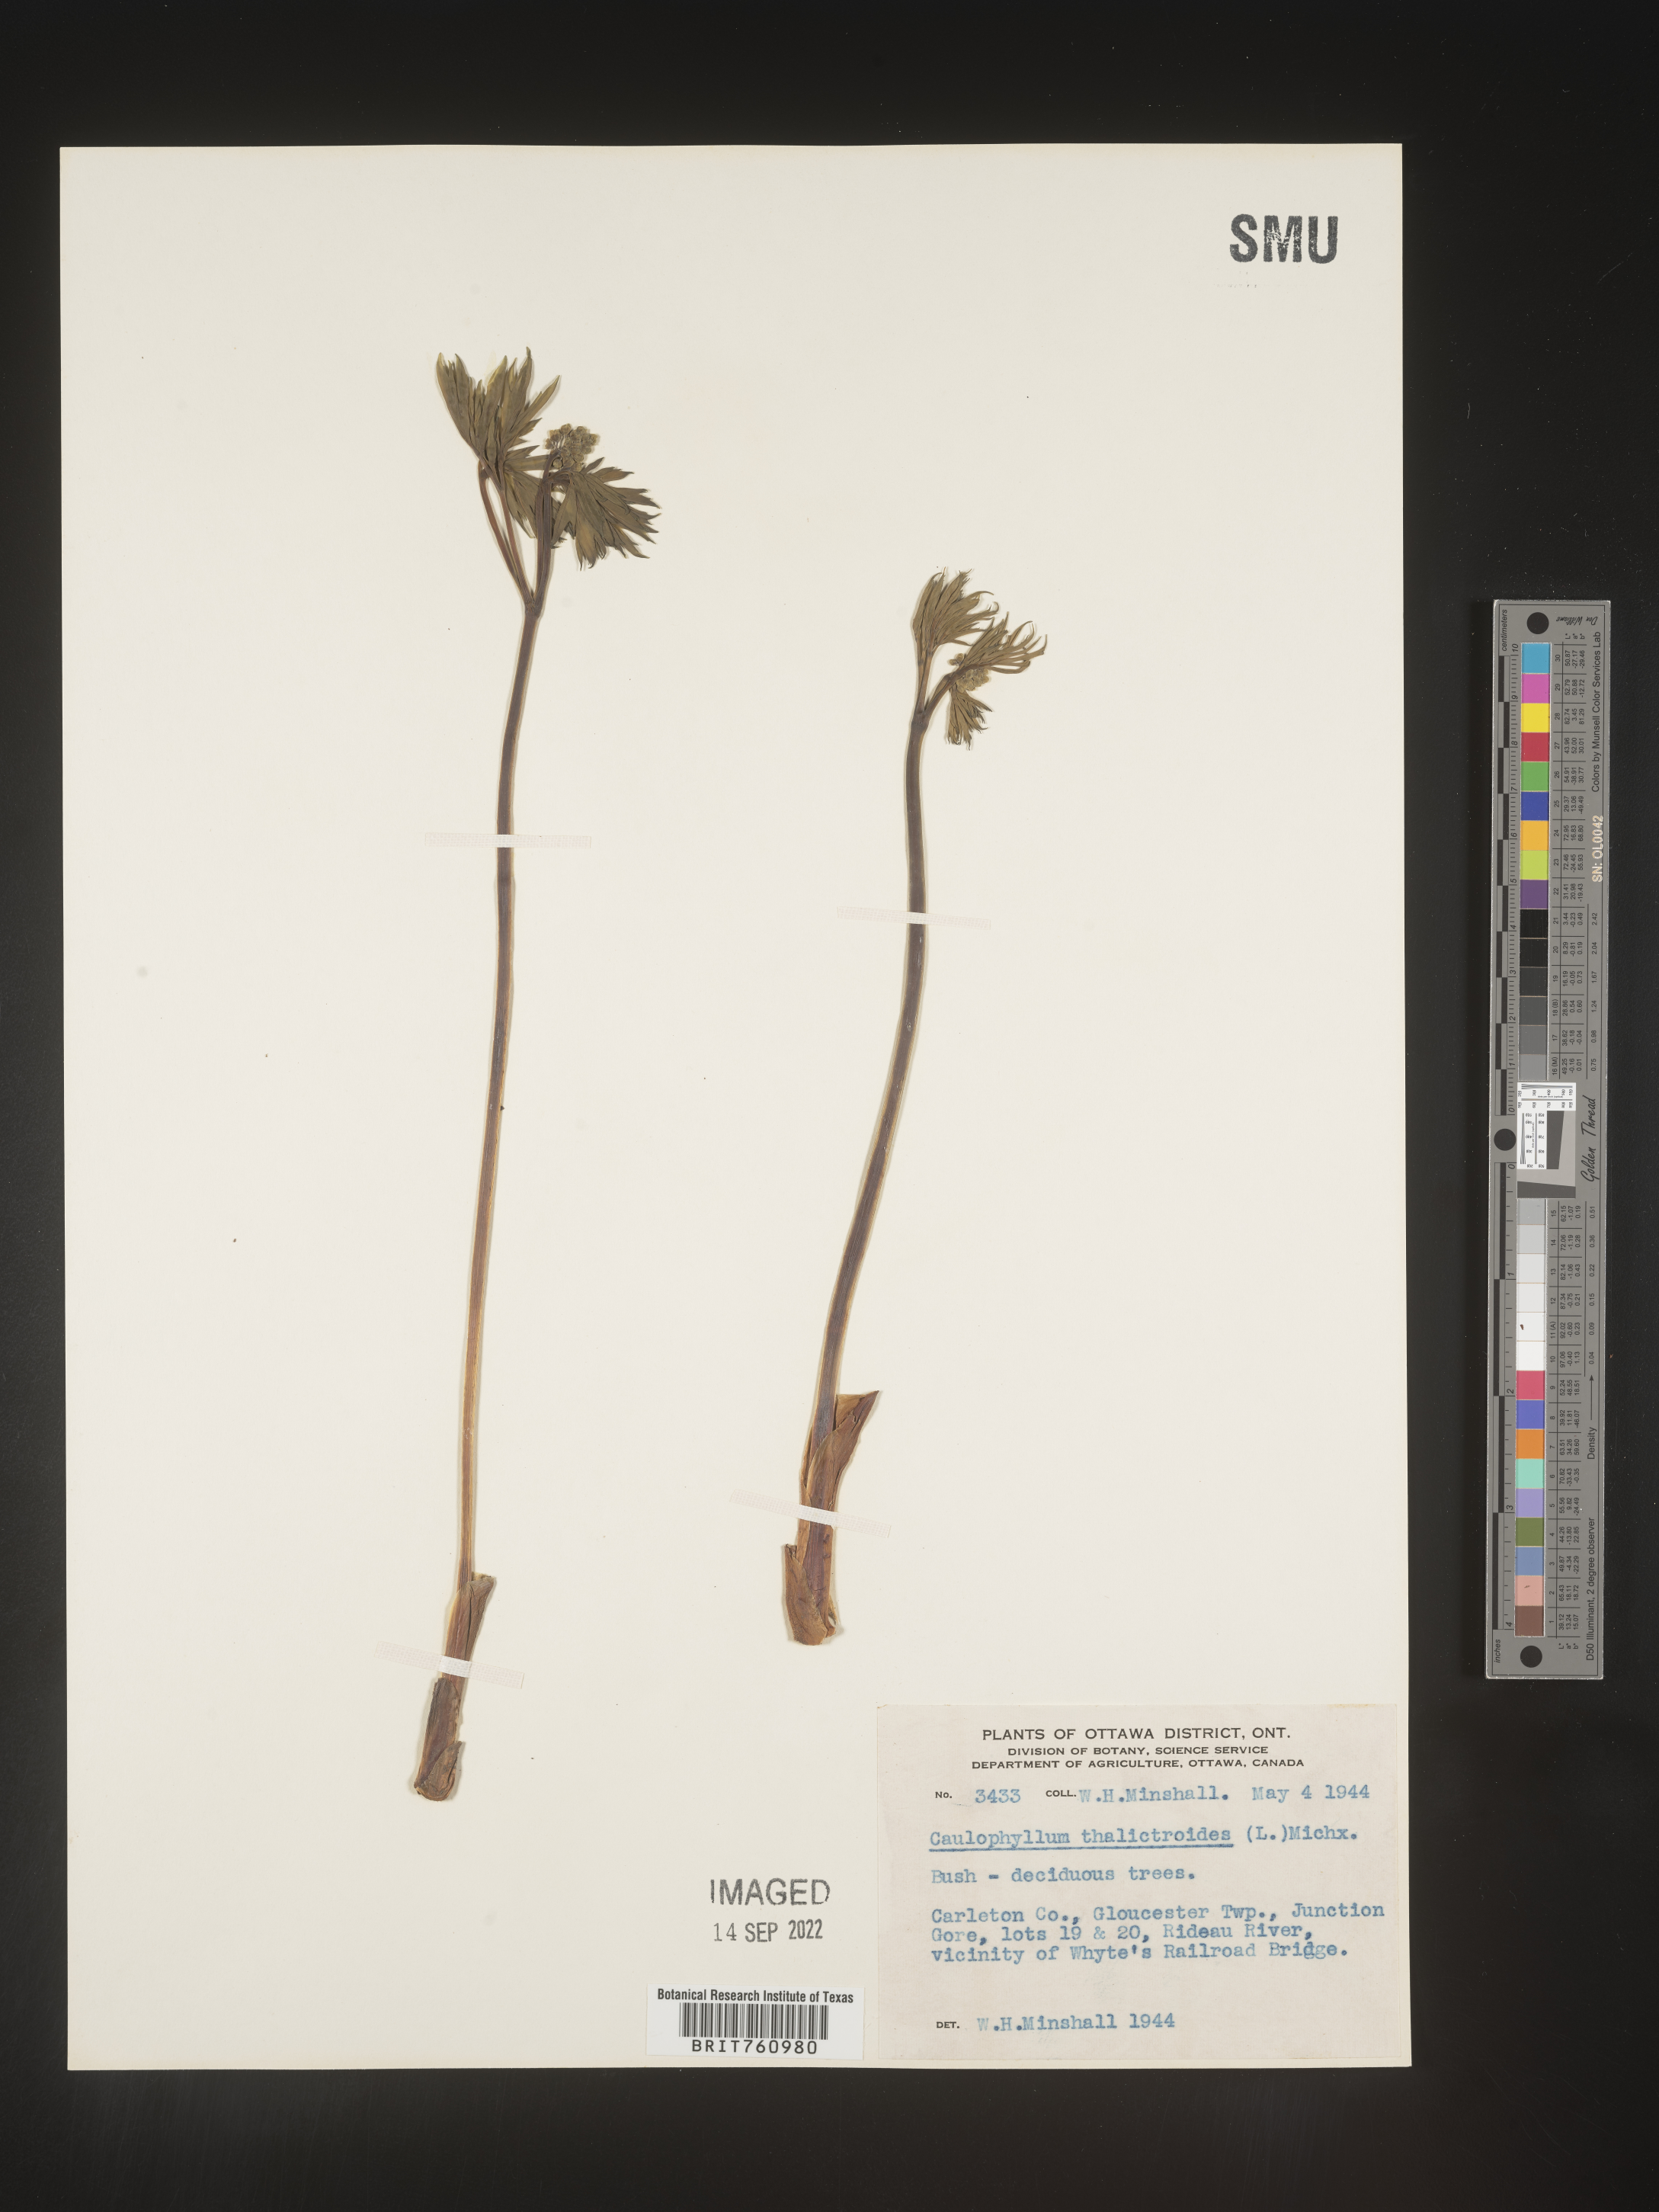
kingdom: Plantae
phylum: Tracheophyta
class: Magnoliopsida
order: Ranunculales
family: Berberidaceae
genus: Caulophyllum
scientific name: Caulophyllum thalictroides
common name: Blue cohosh
